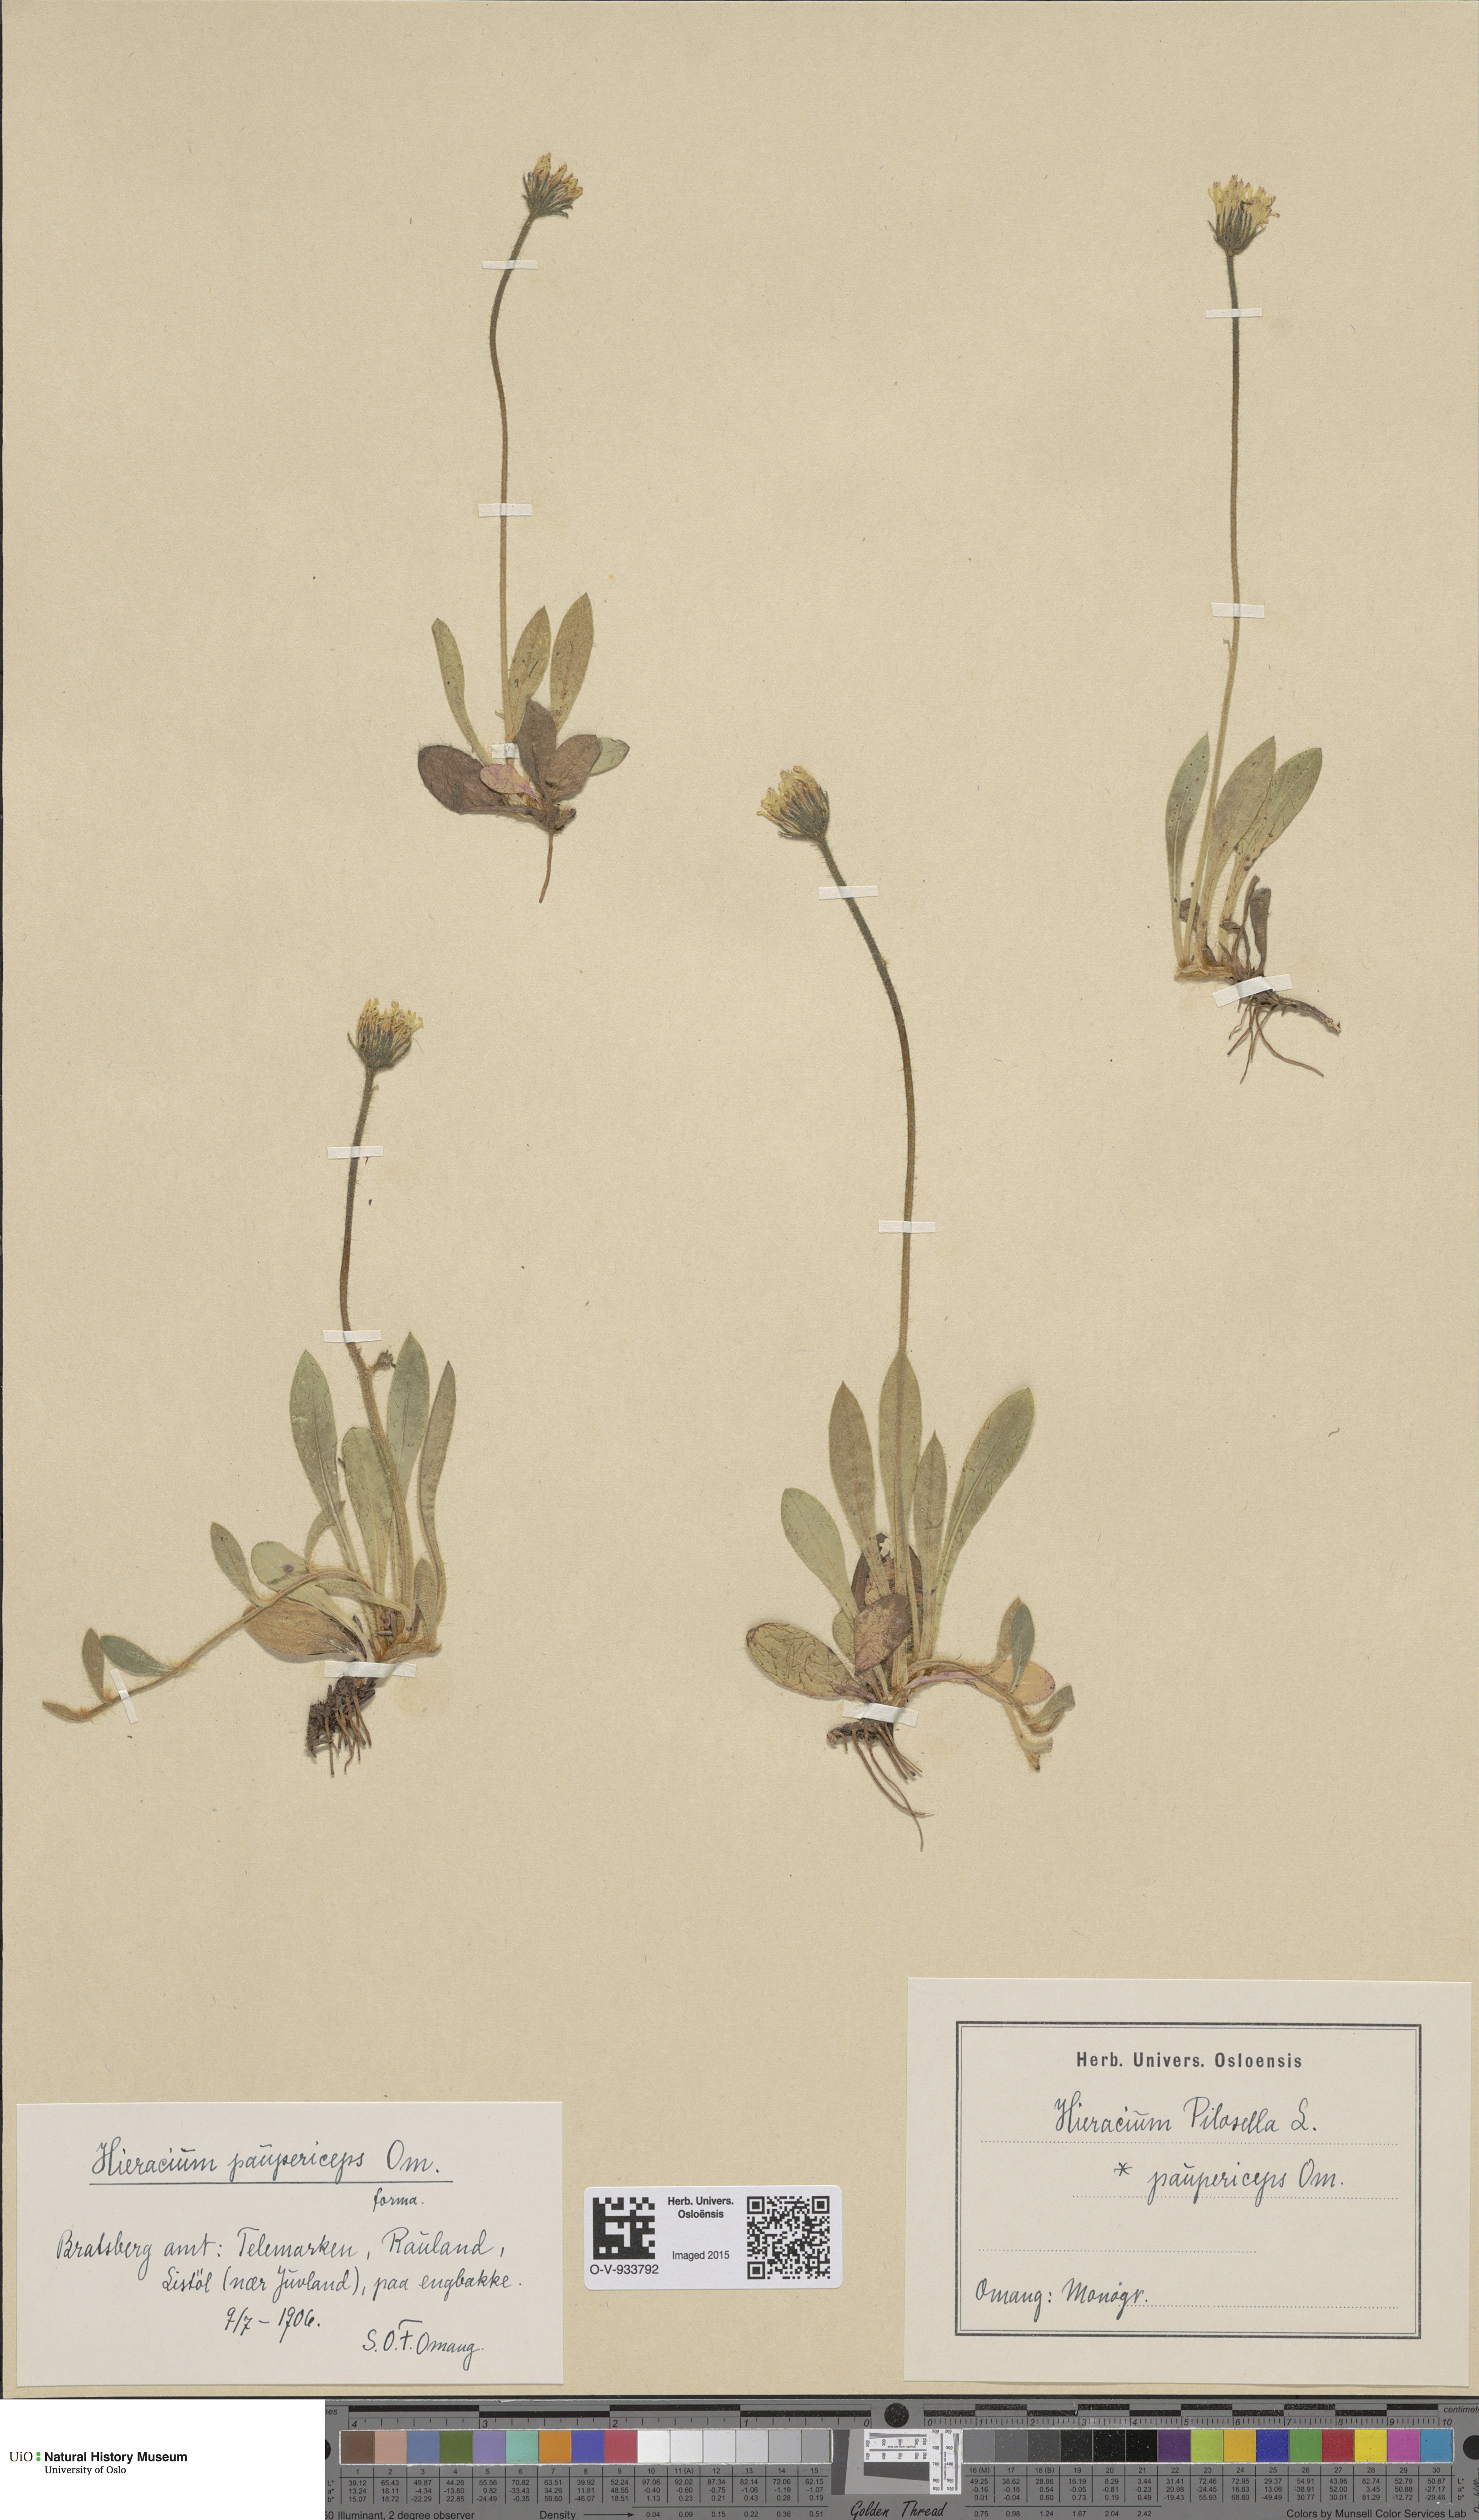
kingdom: Plantae
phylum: Tracheophyta
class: Magnoliopsida
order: Asterales
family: Asteraceae
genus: Pilosella
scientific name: Pilosella officinarum
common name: Mouse-ear hawkweed
